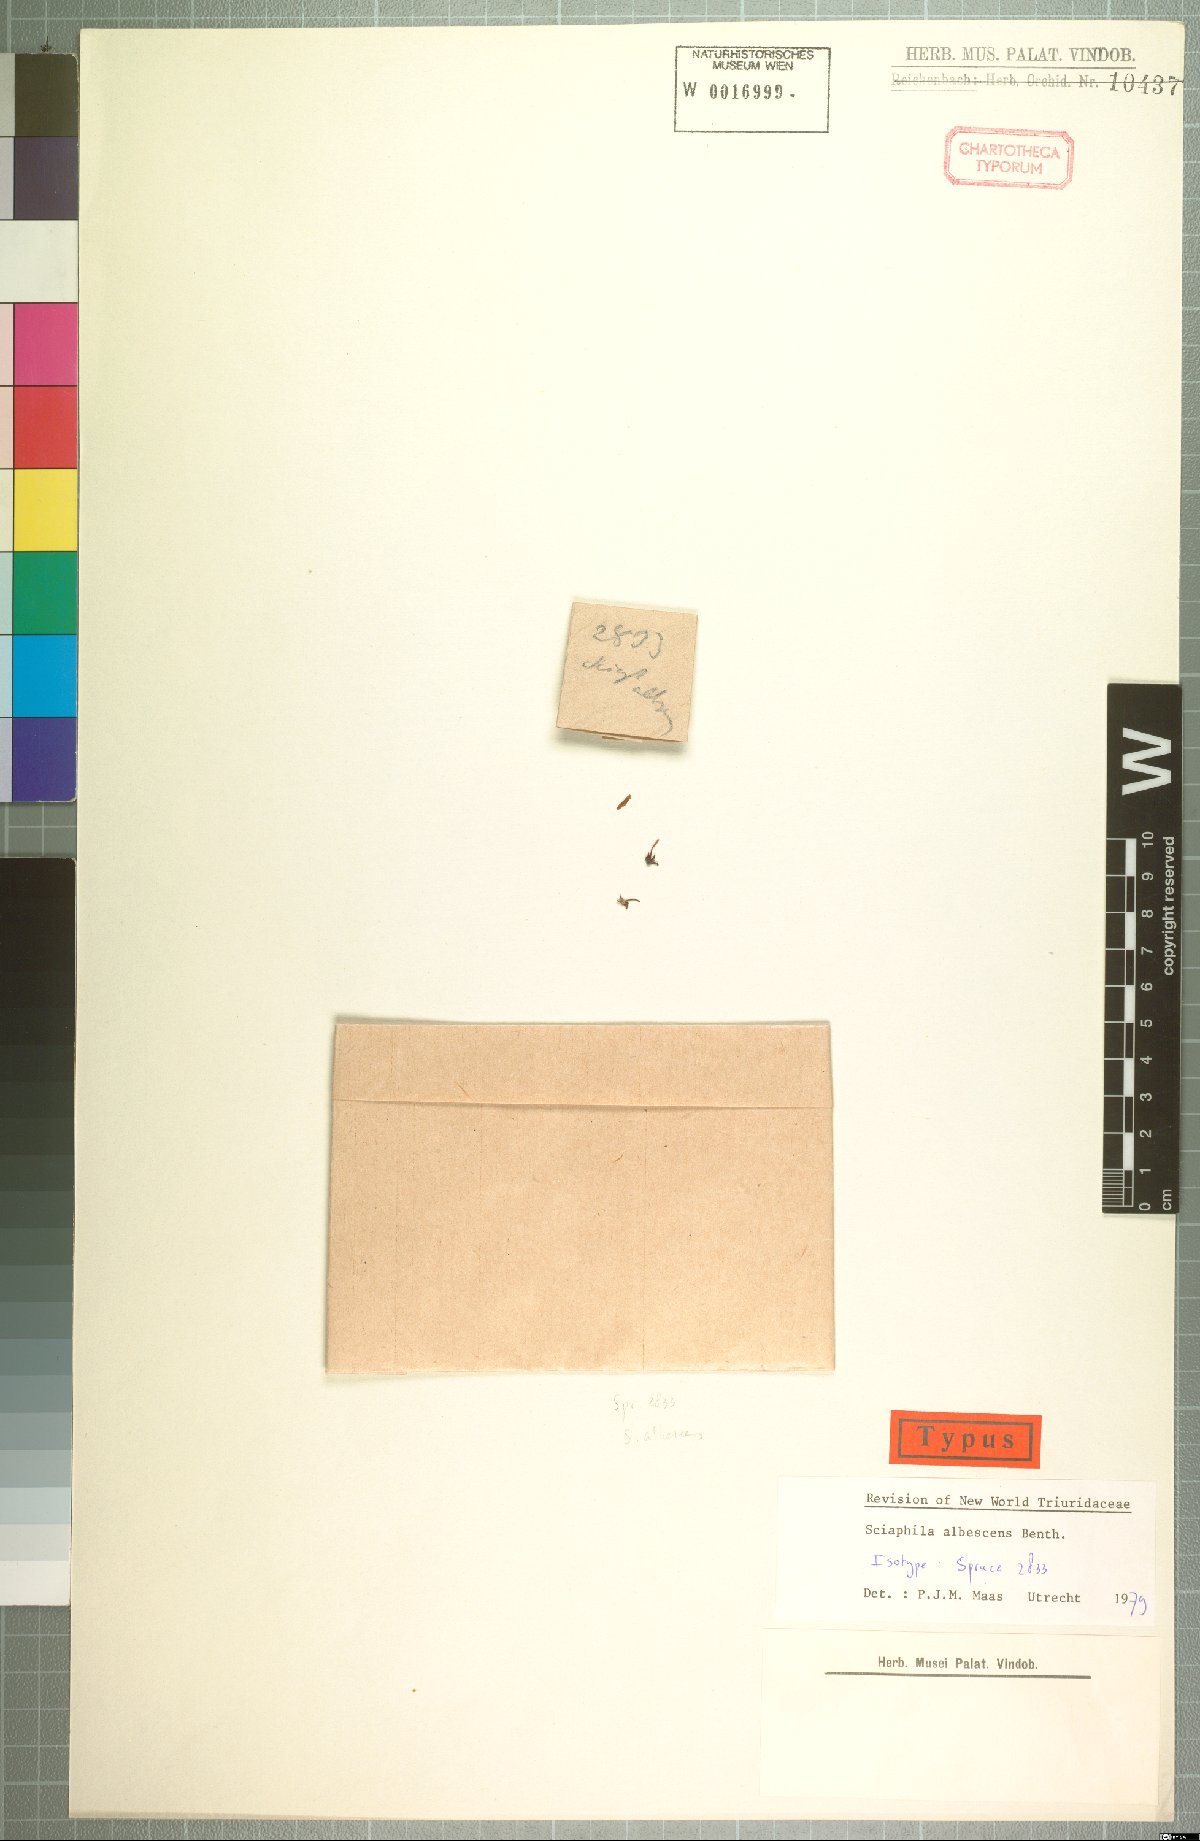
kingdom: Plantae
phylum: Tracheophyta
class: Liliopsida
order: Pandanales
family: Triuridaceae
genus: Sciaphila
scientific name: Sciaphila albescens
